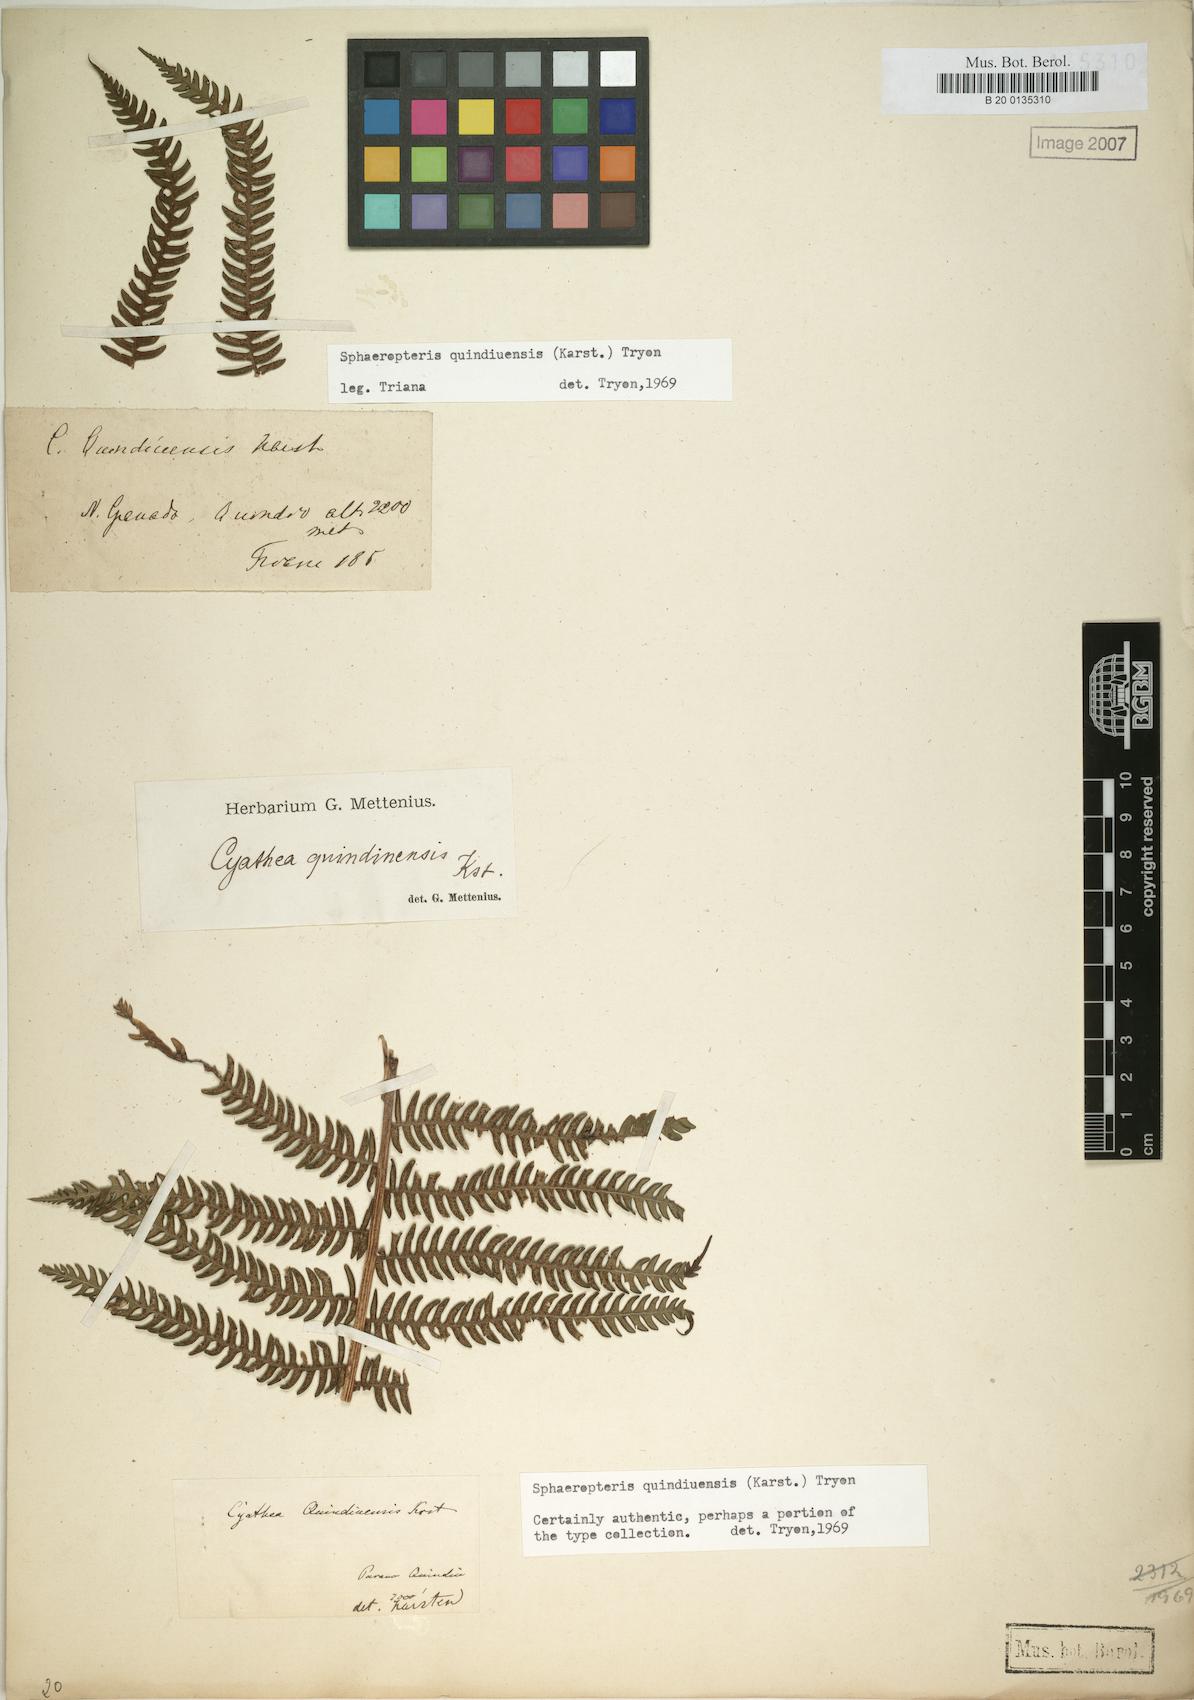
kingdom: Plantae
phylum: Tracheophyta
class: Polypodiopsida
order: Cyatheales
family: Cyatheaceae
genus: Sphaeropteris
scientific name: Sphaeropteris quindiuensis
